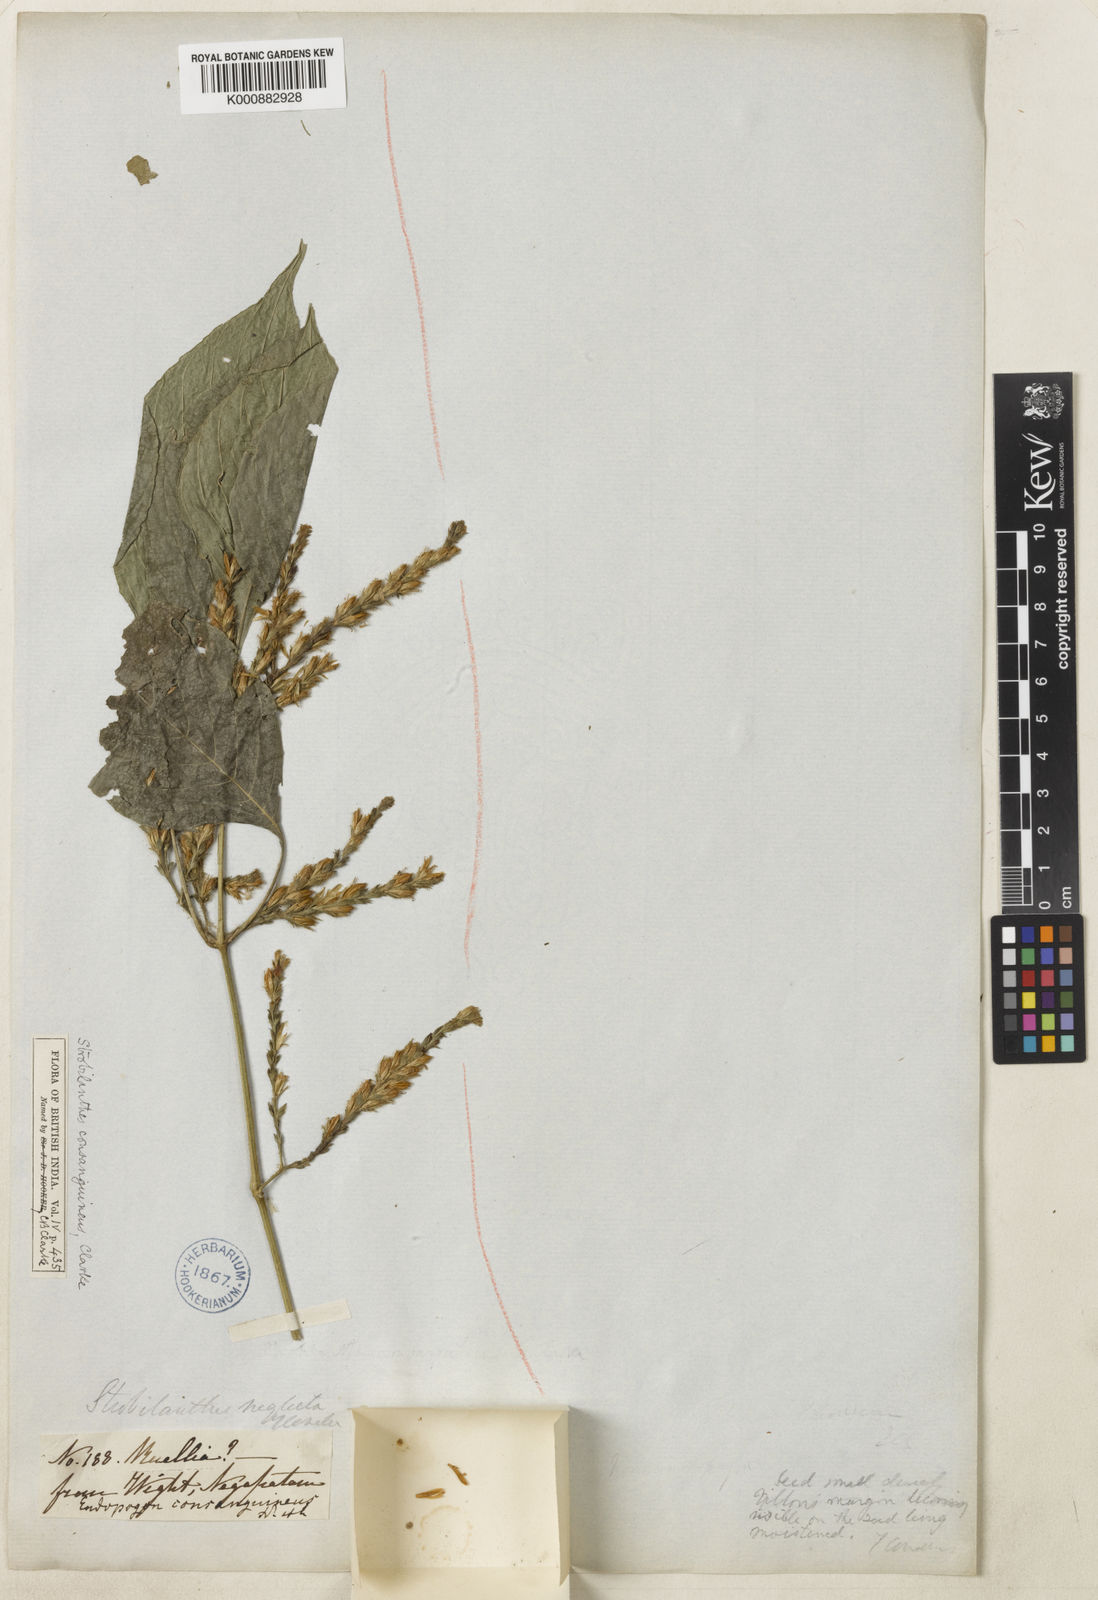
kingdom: Plantae
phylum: Tracheophyta
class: Magnoliopsida
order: Lamiales
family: Acanthaceae
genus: Strobilanthes
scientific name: Strobilanthes diandra
